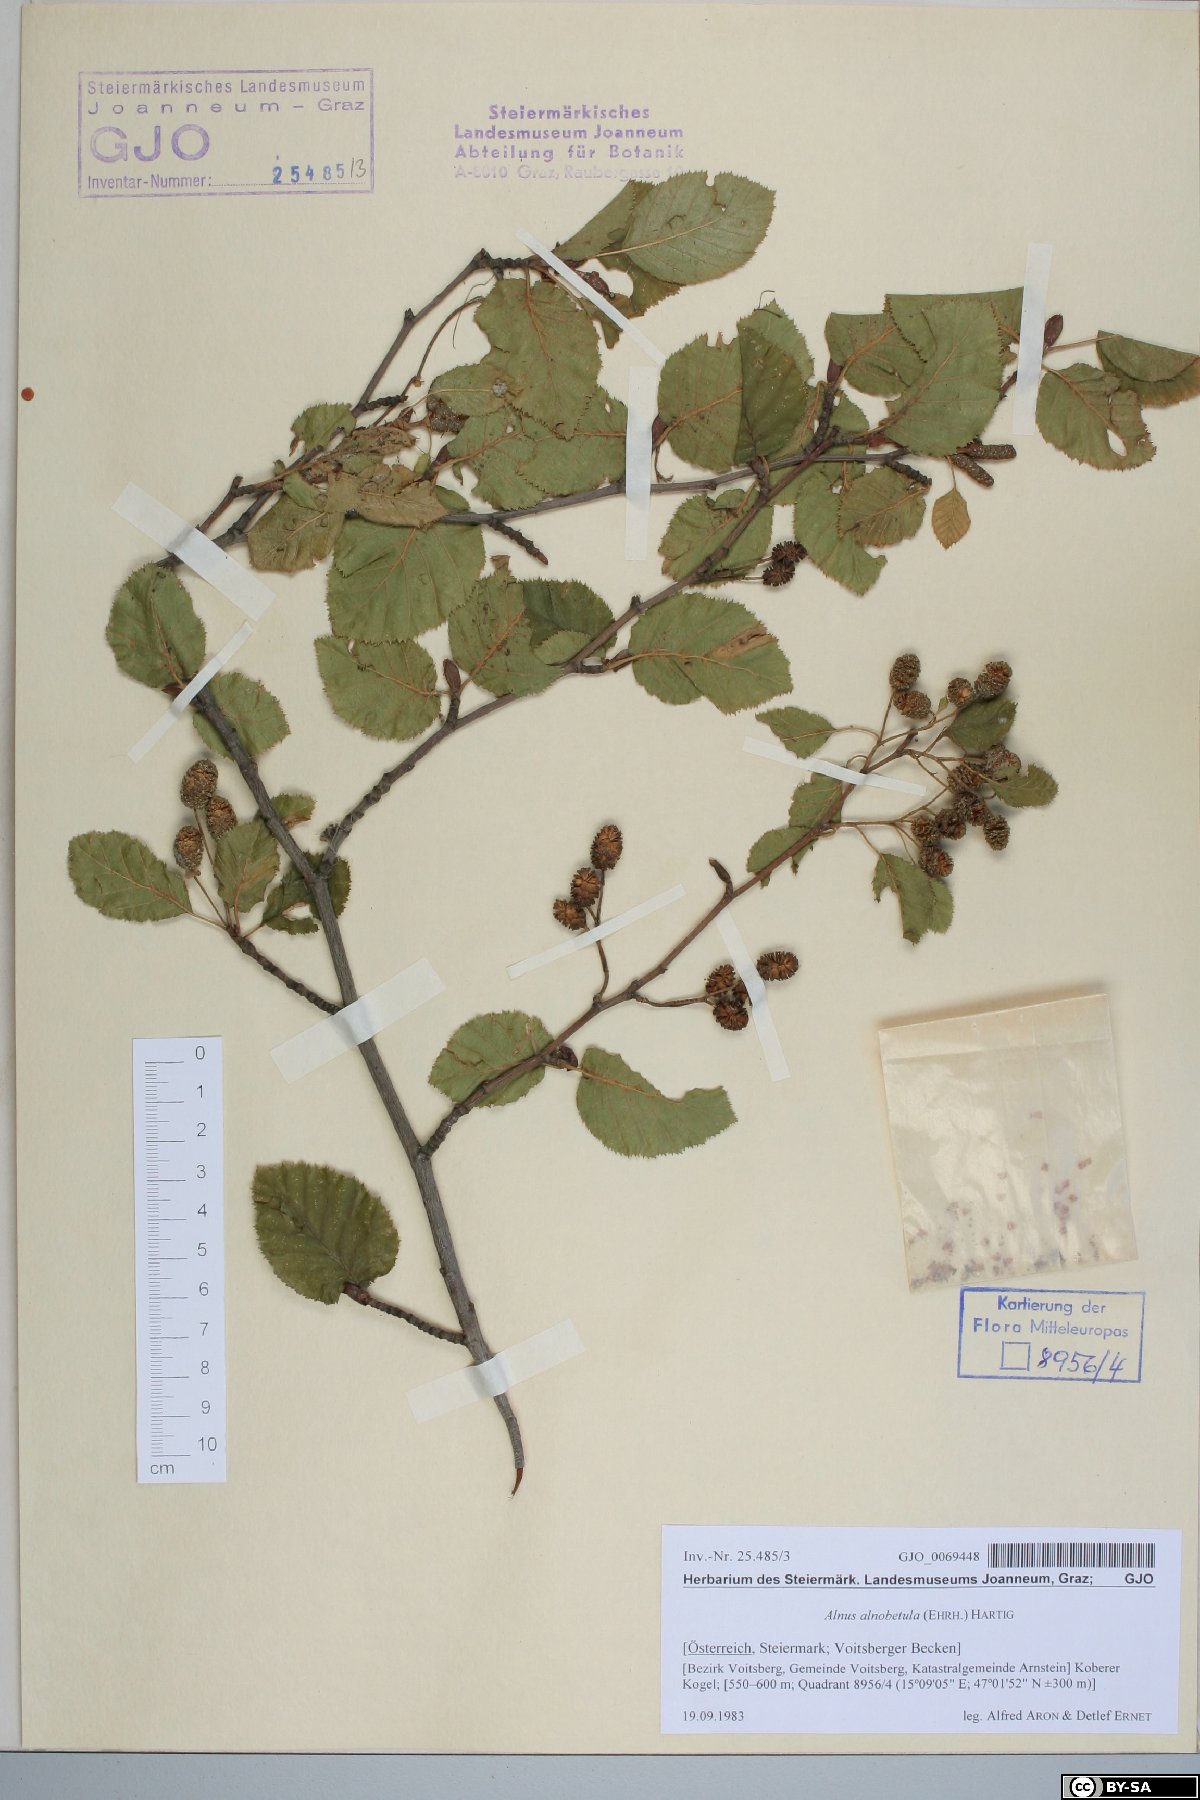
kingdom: Plantae
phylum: Tracheophyta
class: Magnoliopsida
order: Fagales
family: Betulaceae
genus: Alnus
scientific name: Alnus alnobetula
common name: Green alder
